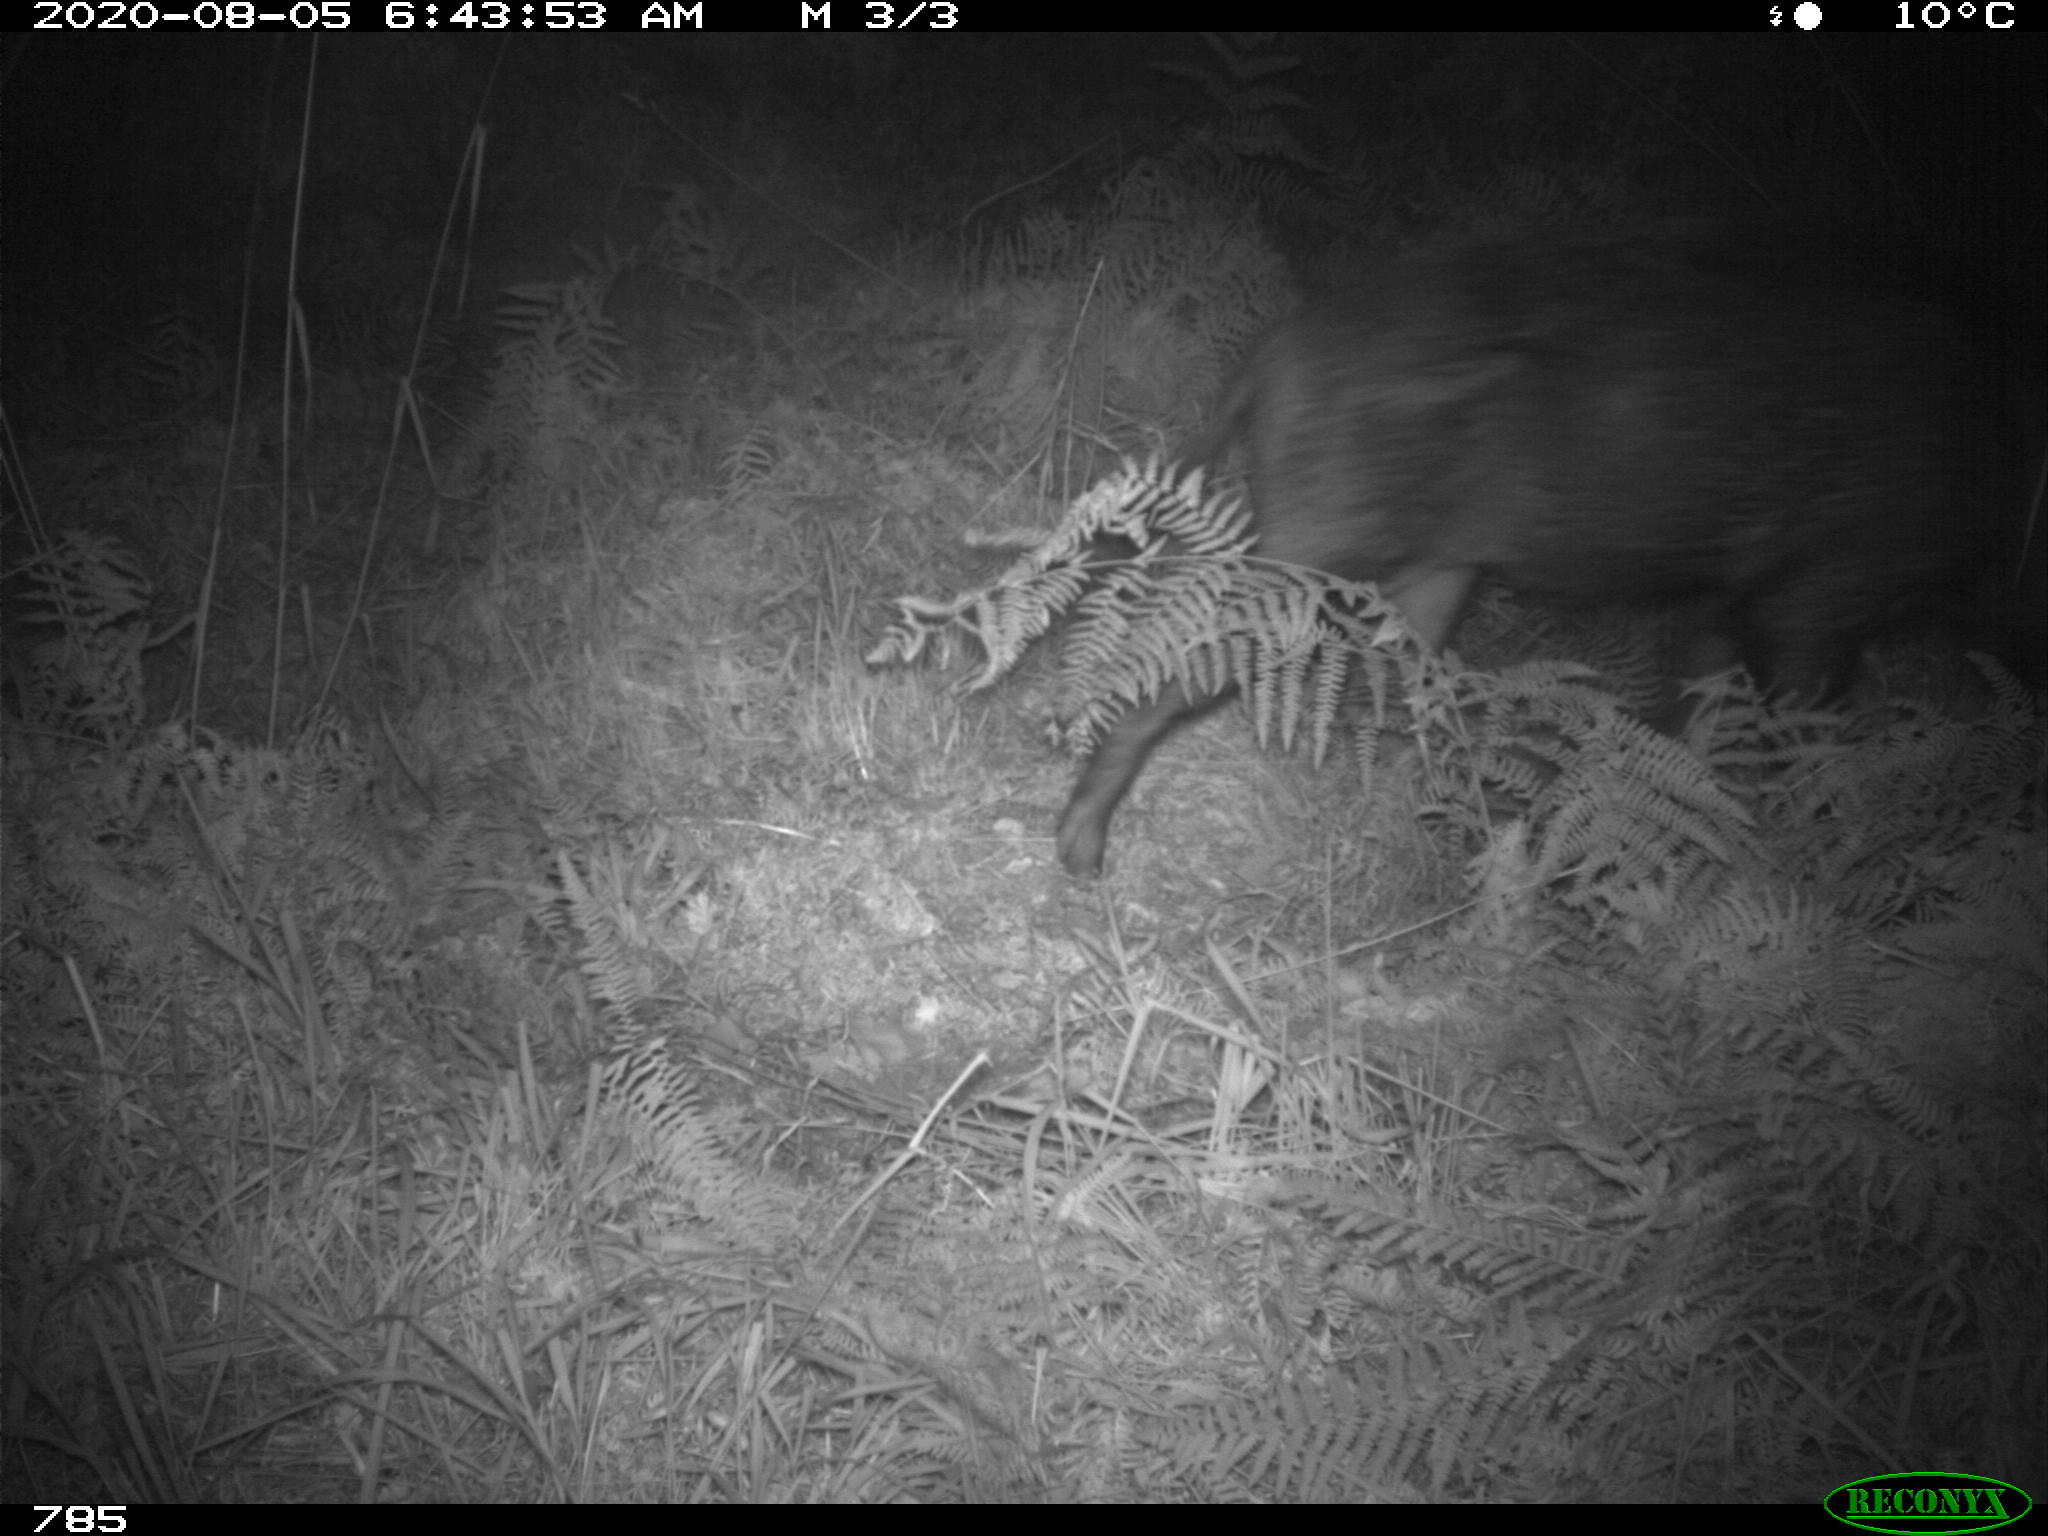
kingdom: Animalia
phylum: Chordata
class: Mammalia
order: Artiodactyla
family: Suidae
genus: Sus
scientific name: Sus scrofa
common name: Wild boar
